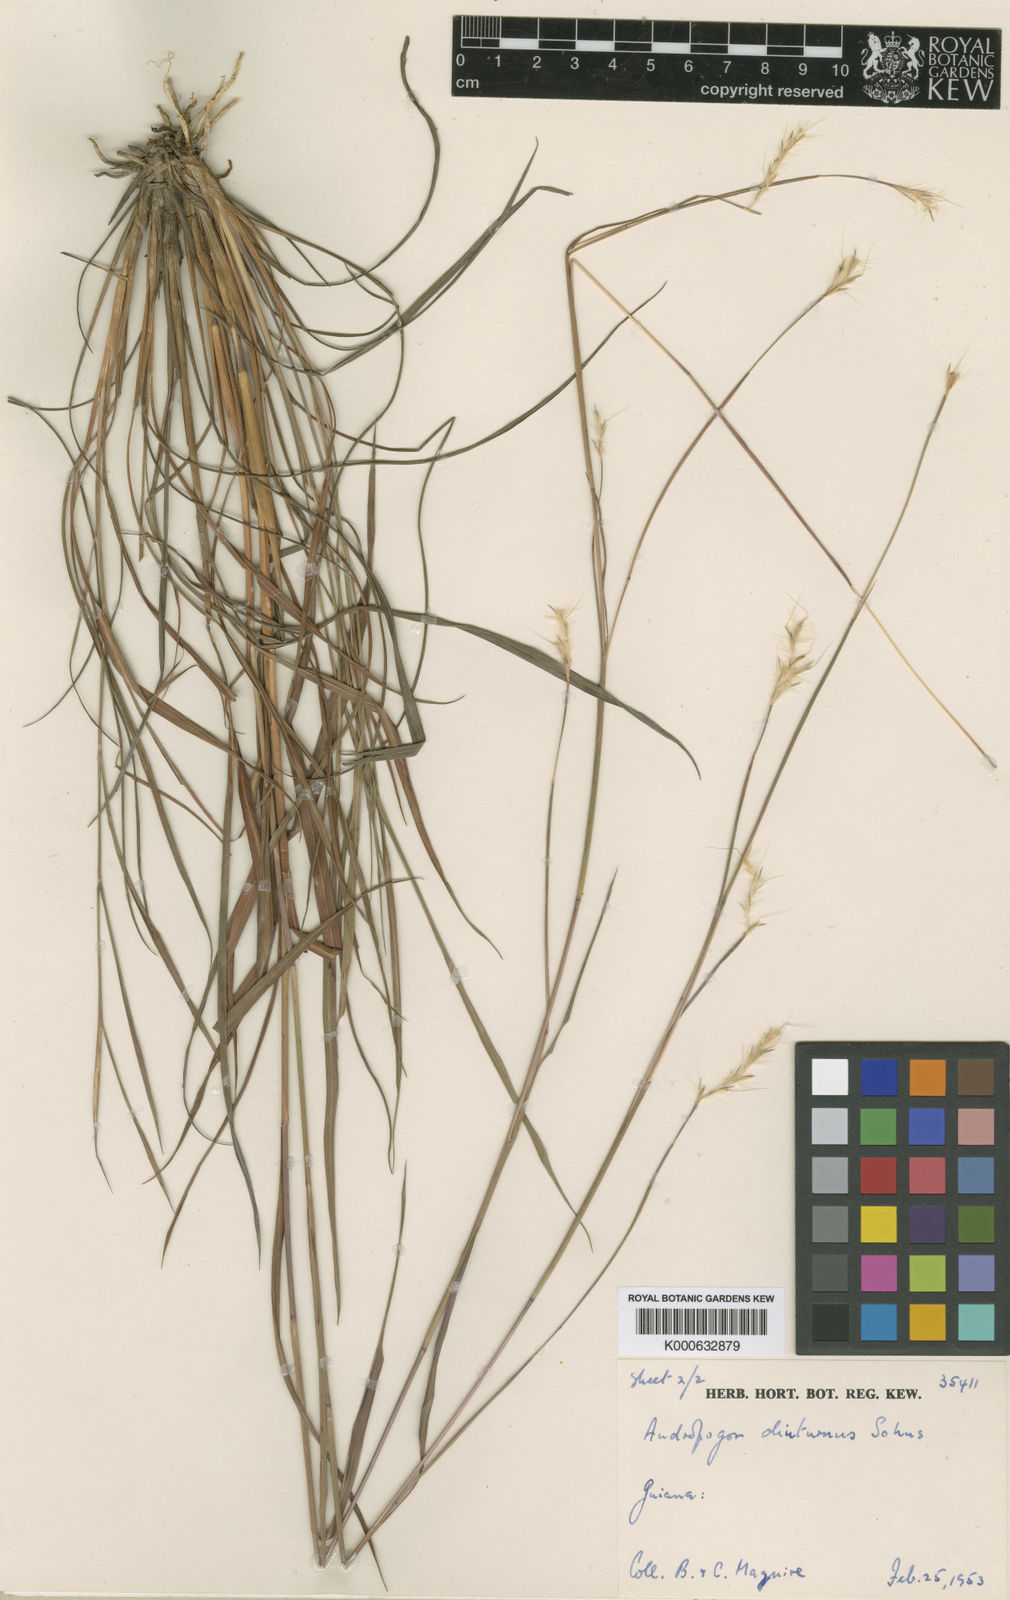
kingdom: Plantae
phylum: Tracheophyta
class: Liliopsida
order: Poales
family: Poaceae
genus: Andropogon
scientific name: Andropogon diuturnus
